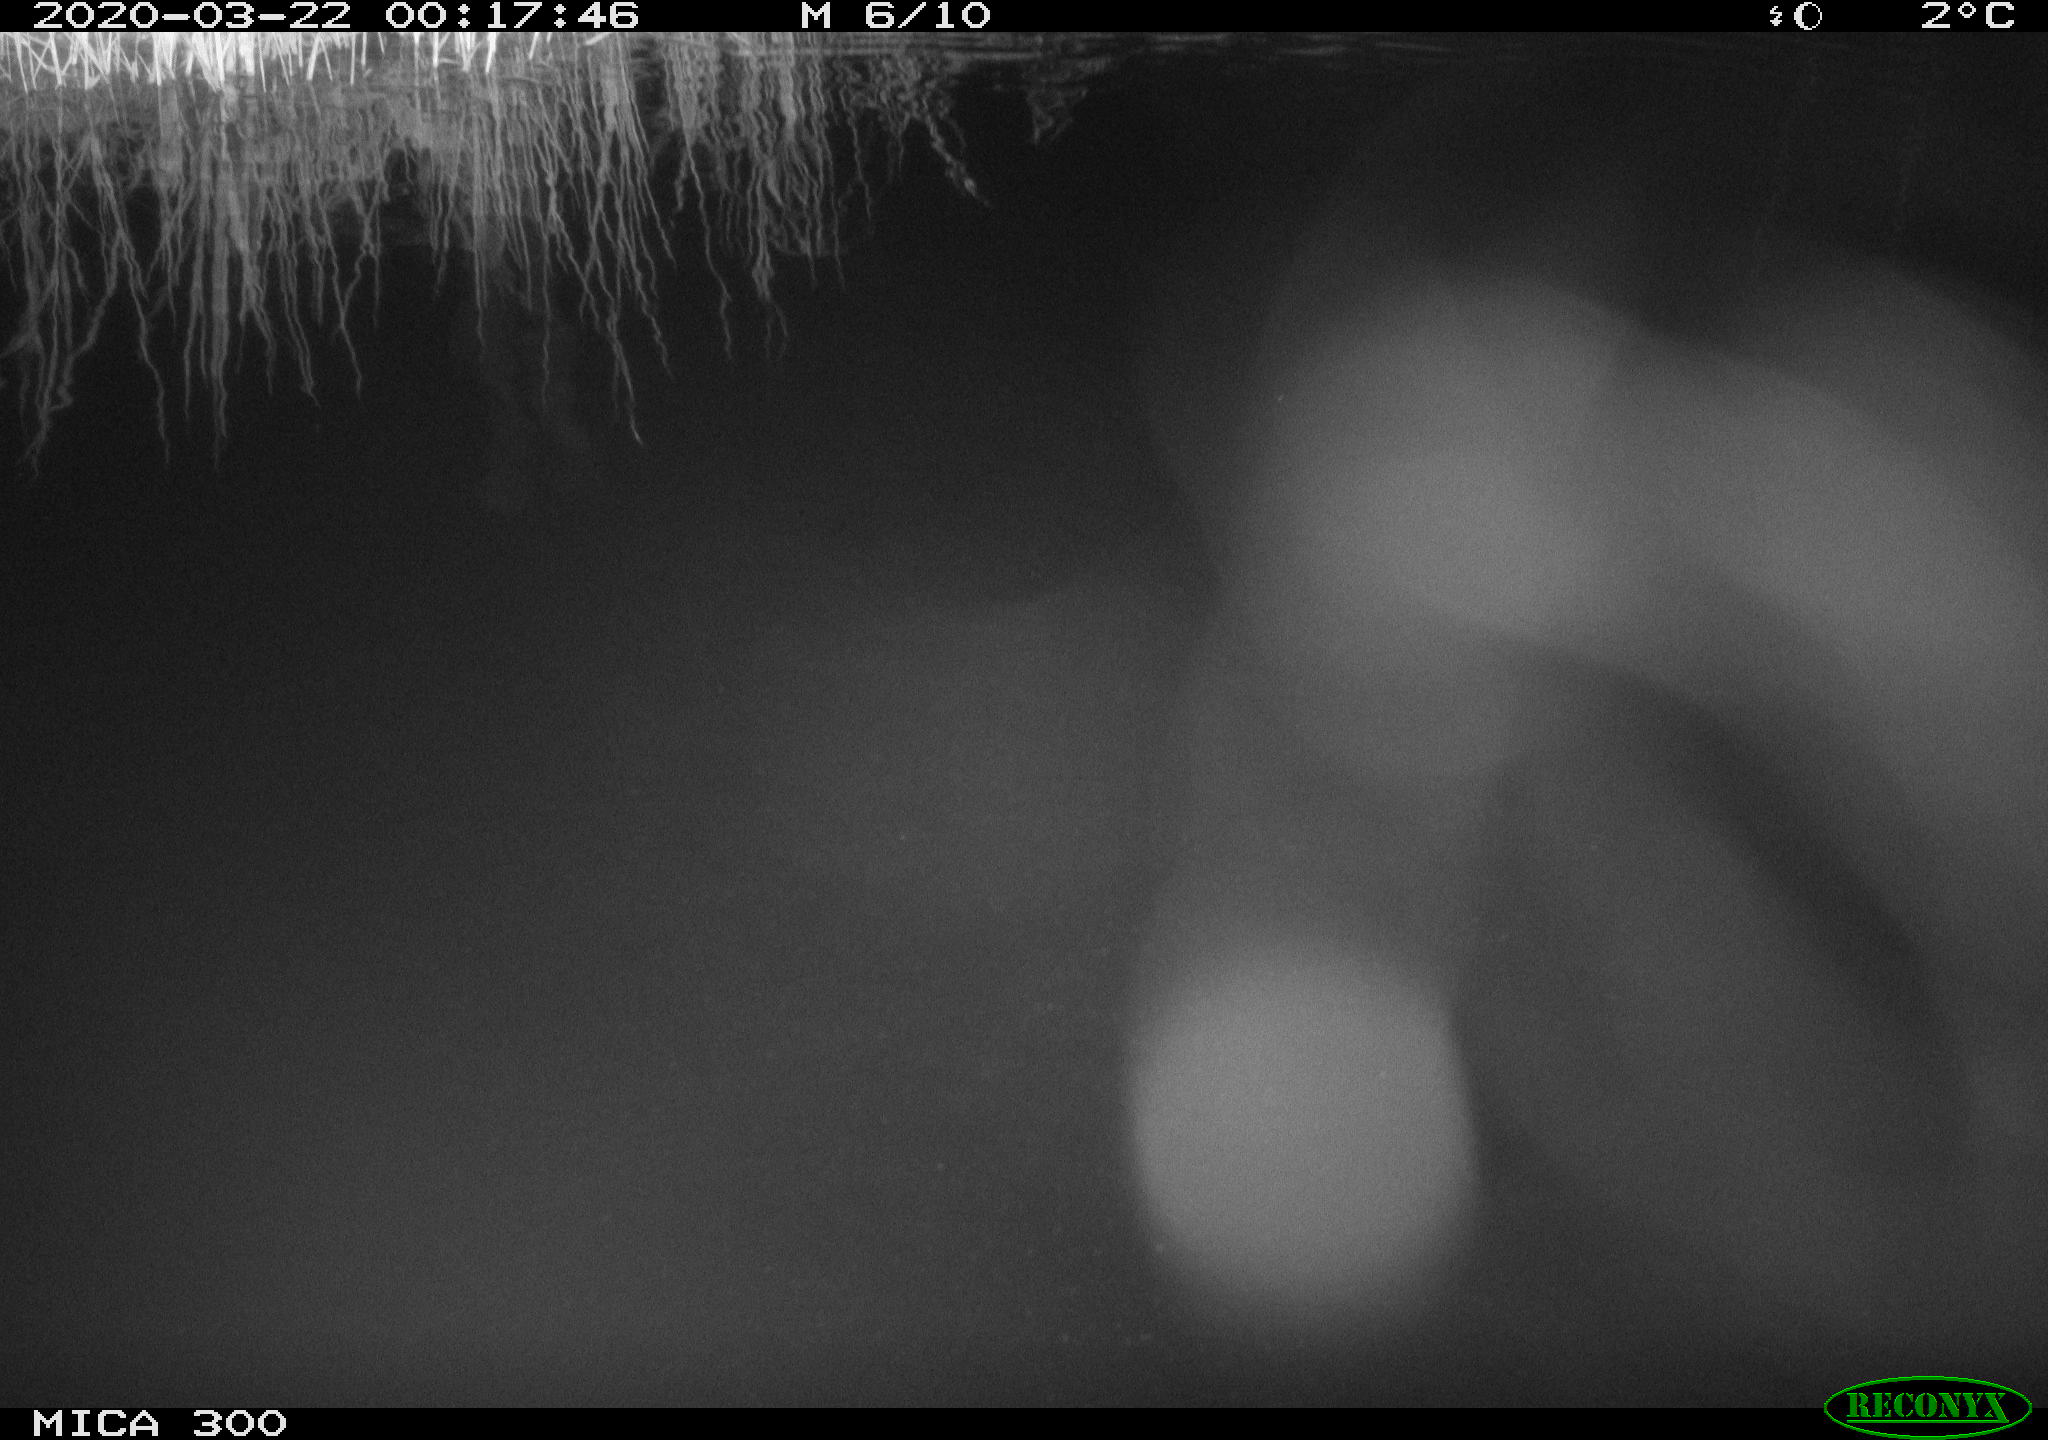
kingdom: Animalia
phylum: Chordata
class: Aves
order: Anseriformes
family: Anatidae
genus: Anas
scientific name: Anas platyrhynchos
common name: Mallard
